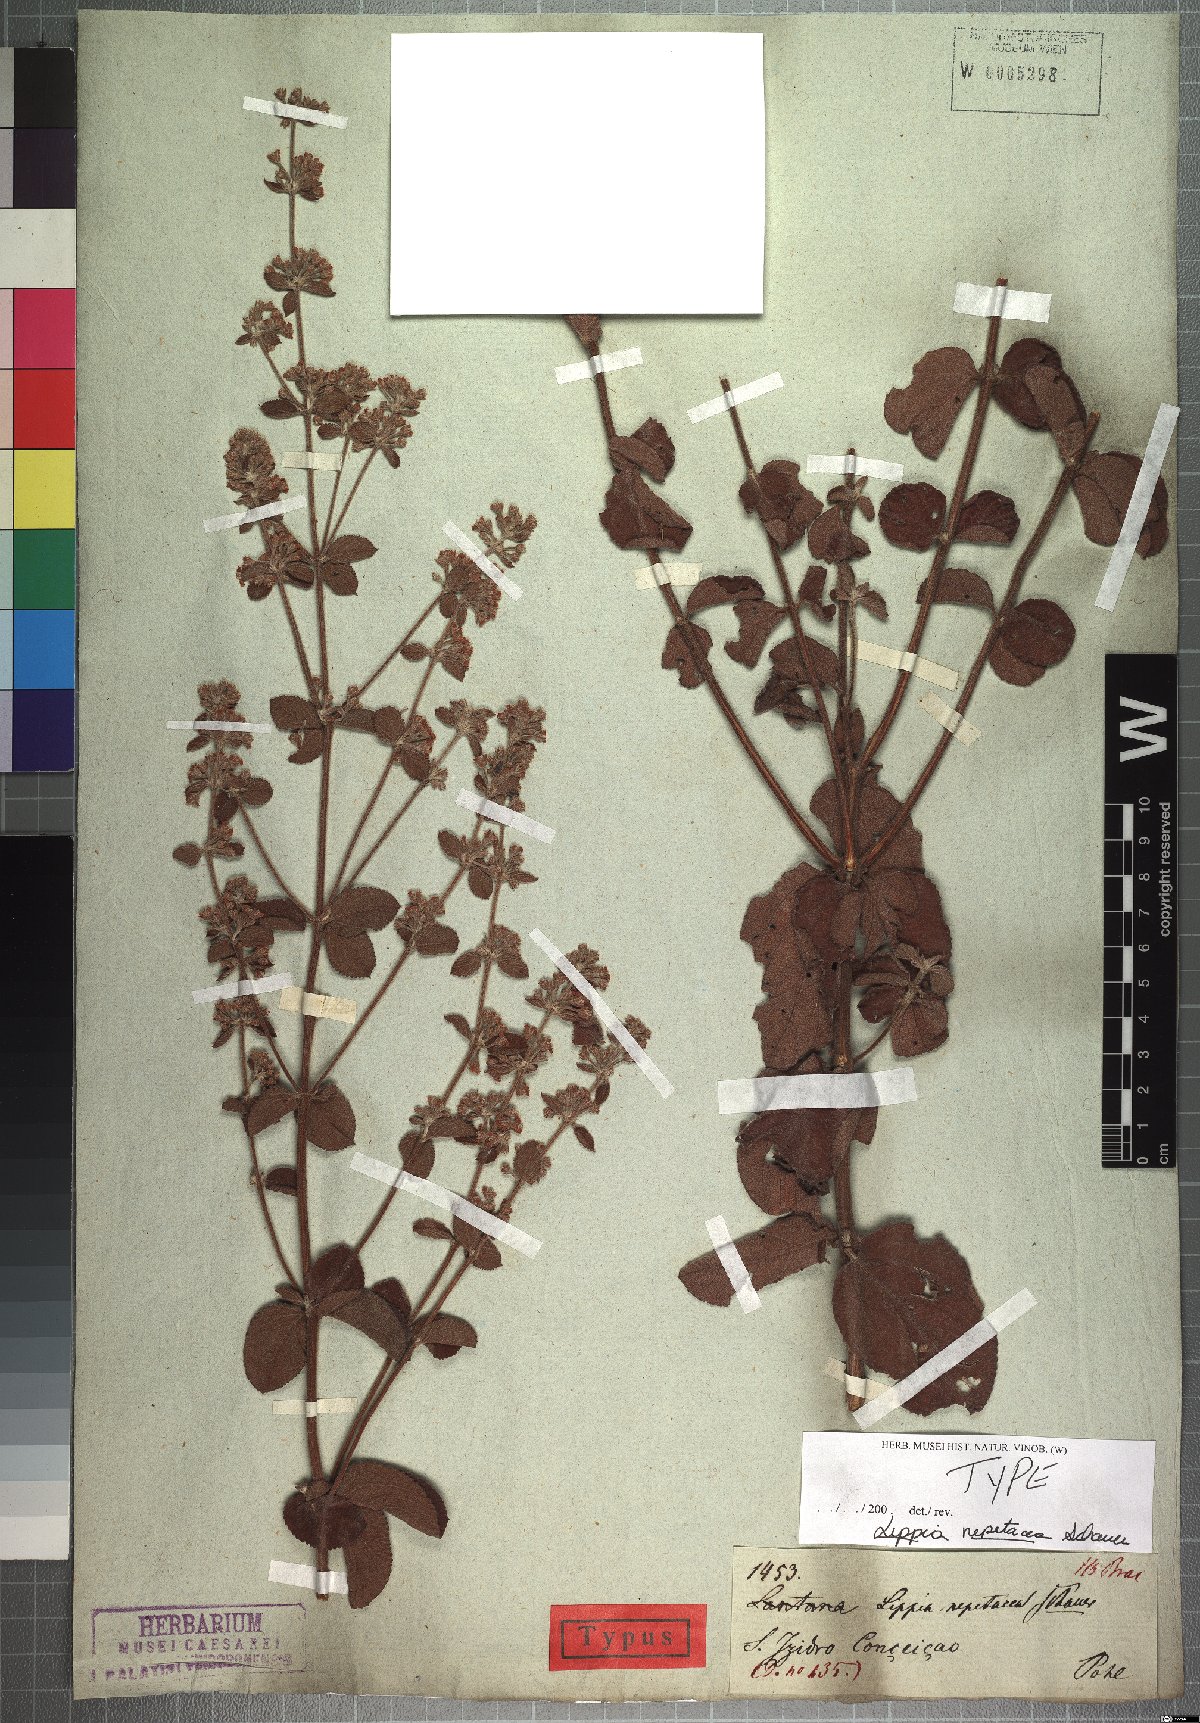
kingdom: Plantae
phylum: Tracheophyta
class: Magnoliopsida
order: Lamiales
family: Verbenaceae
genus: Lippia
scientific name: Lippia martiana
